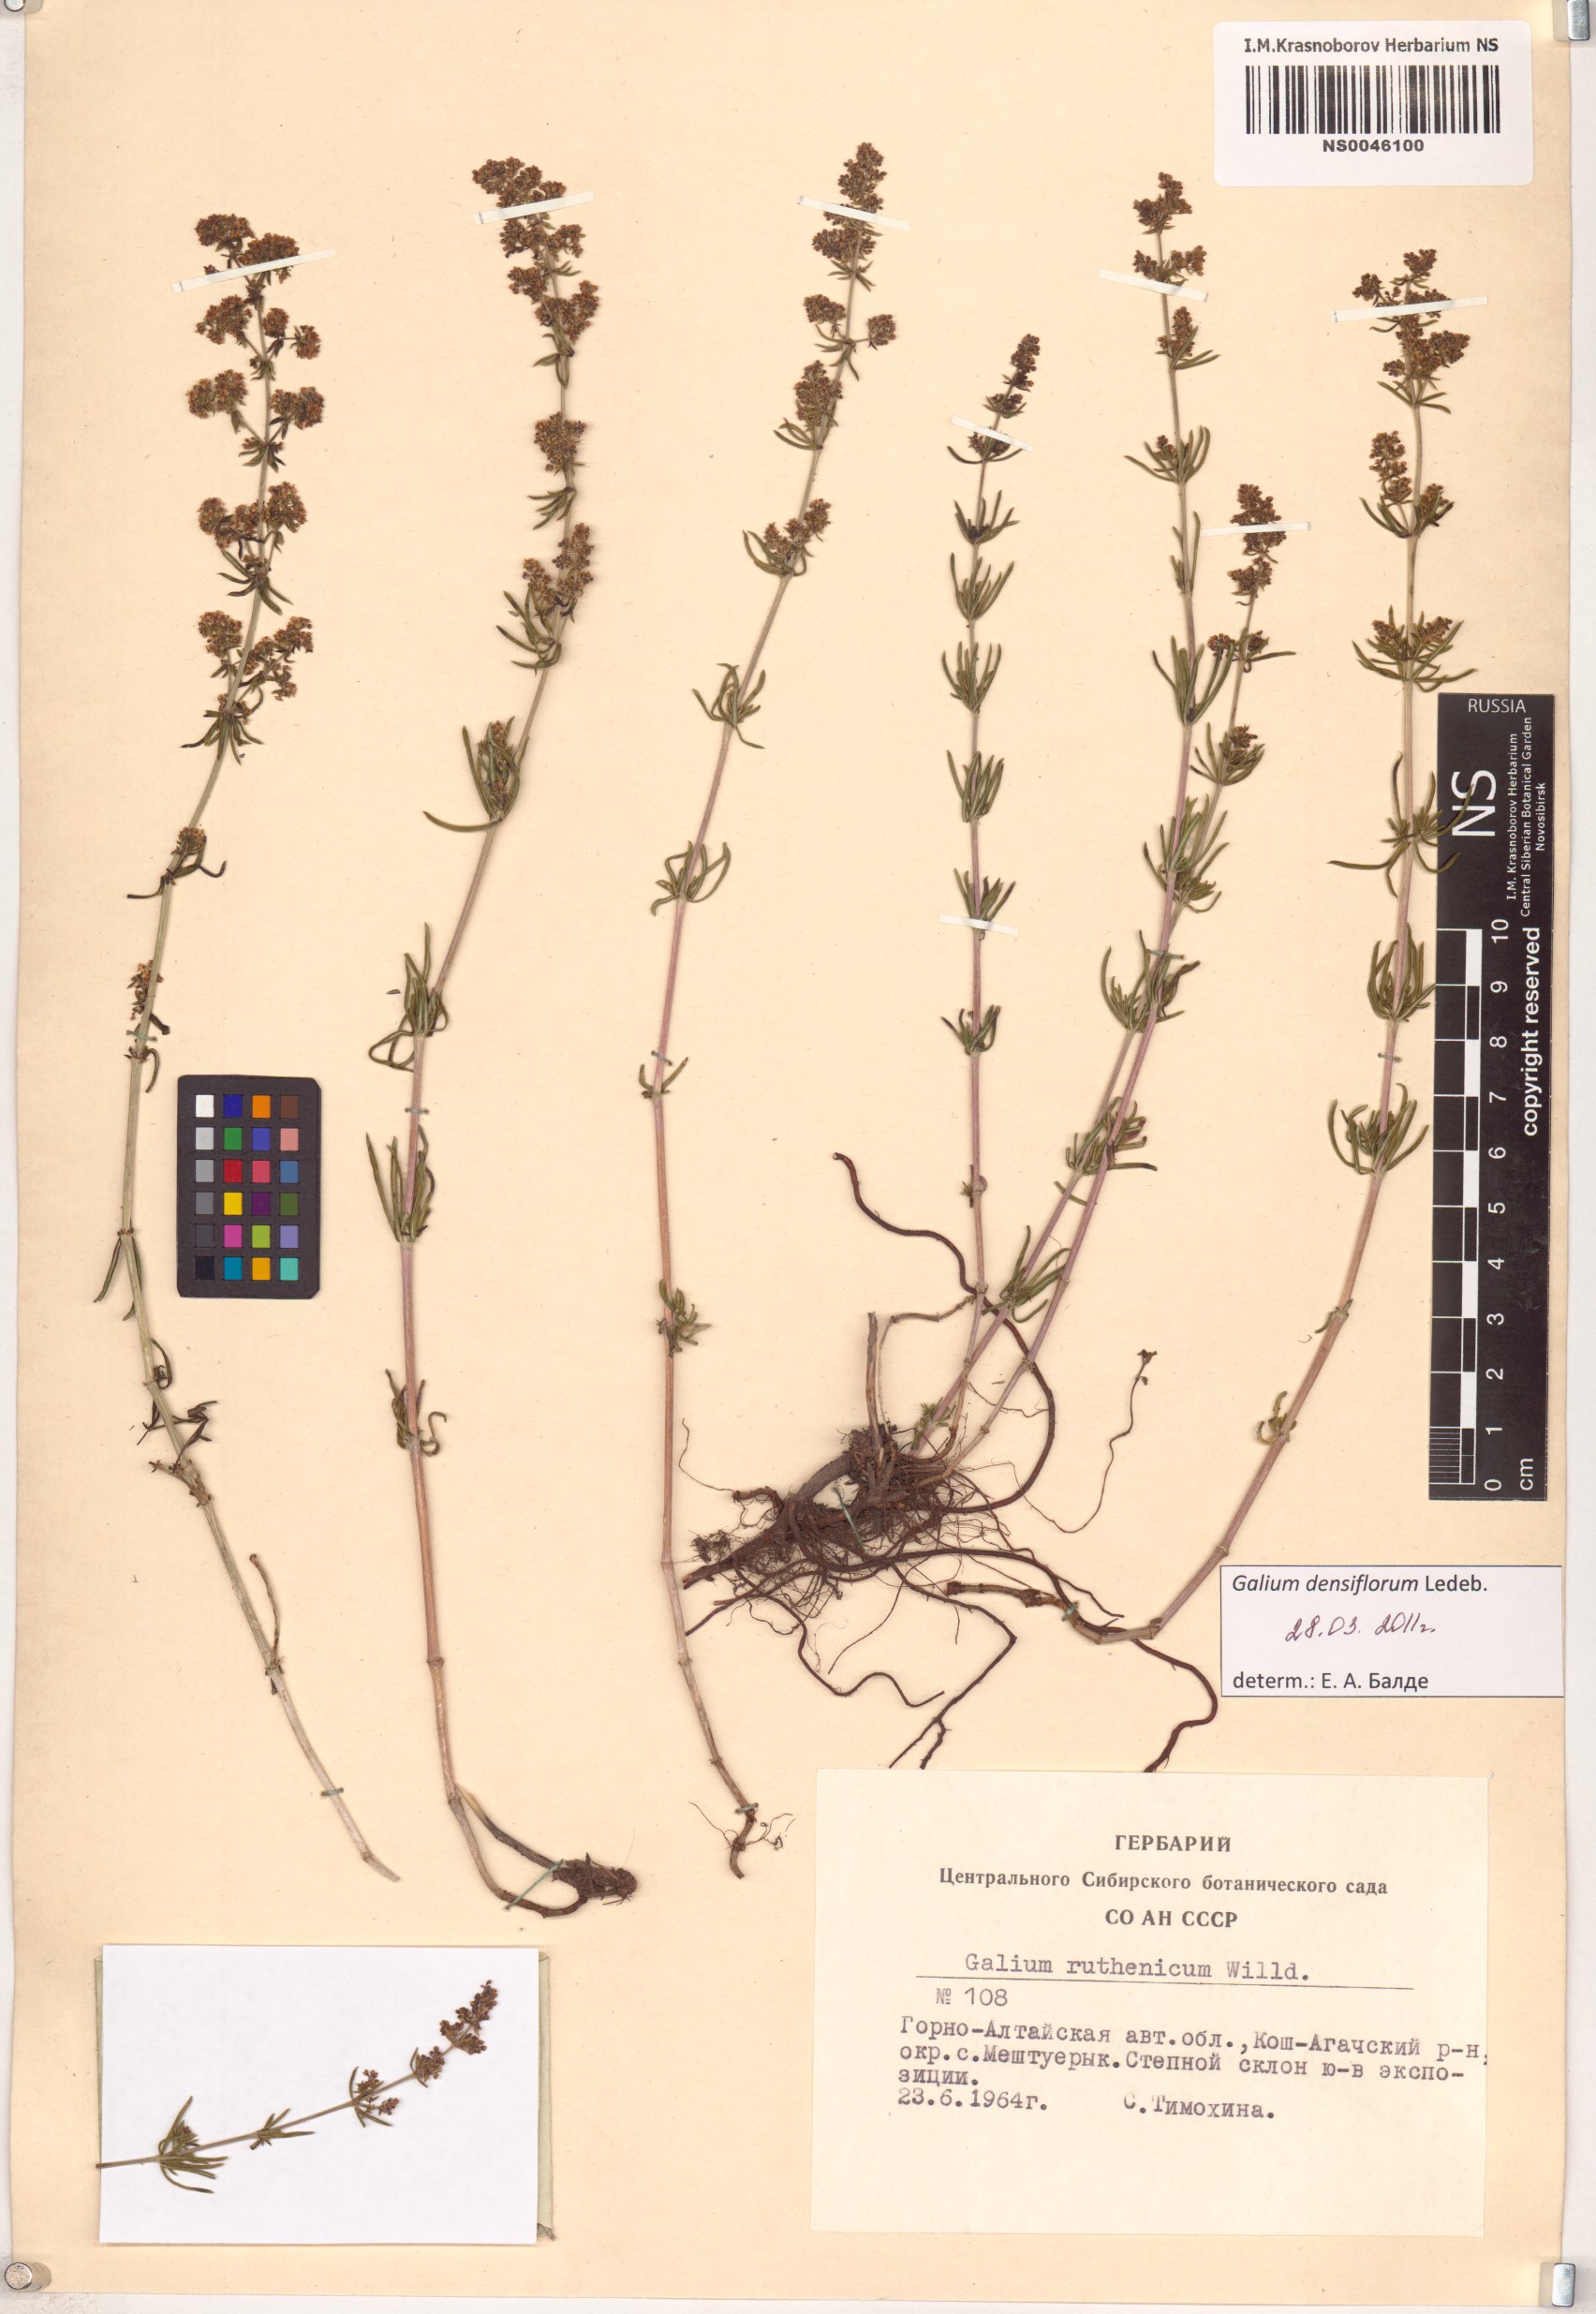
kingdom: Plantae
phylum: Tracheophyta
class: Magnoliopsida
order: Gentianales
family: Rubiaceae
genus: Galium
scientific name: Galium densiflorum
